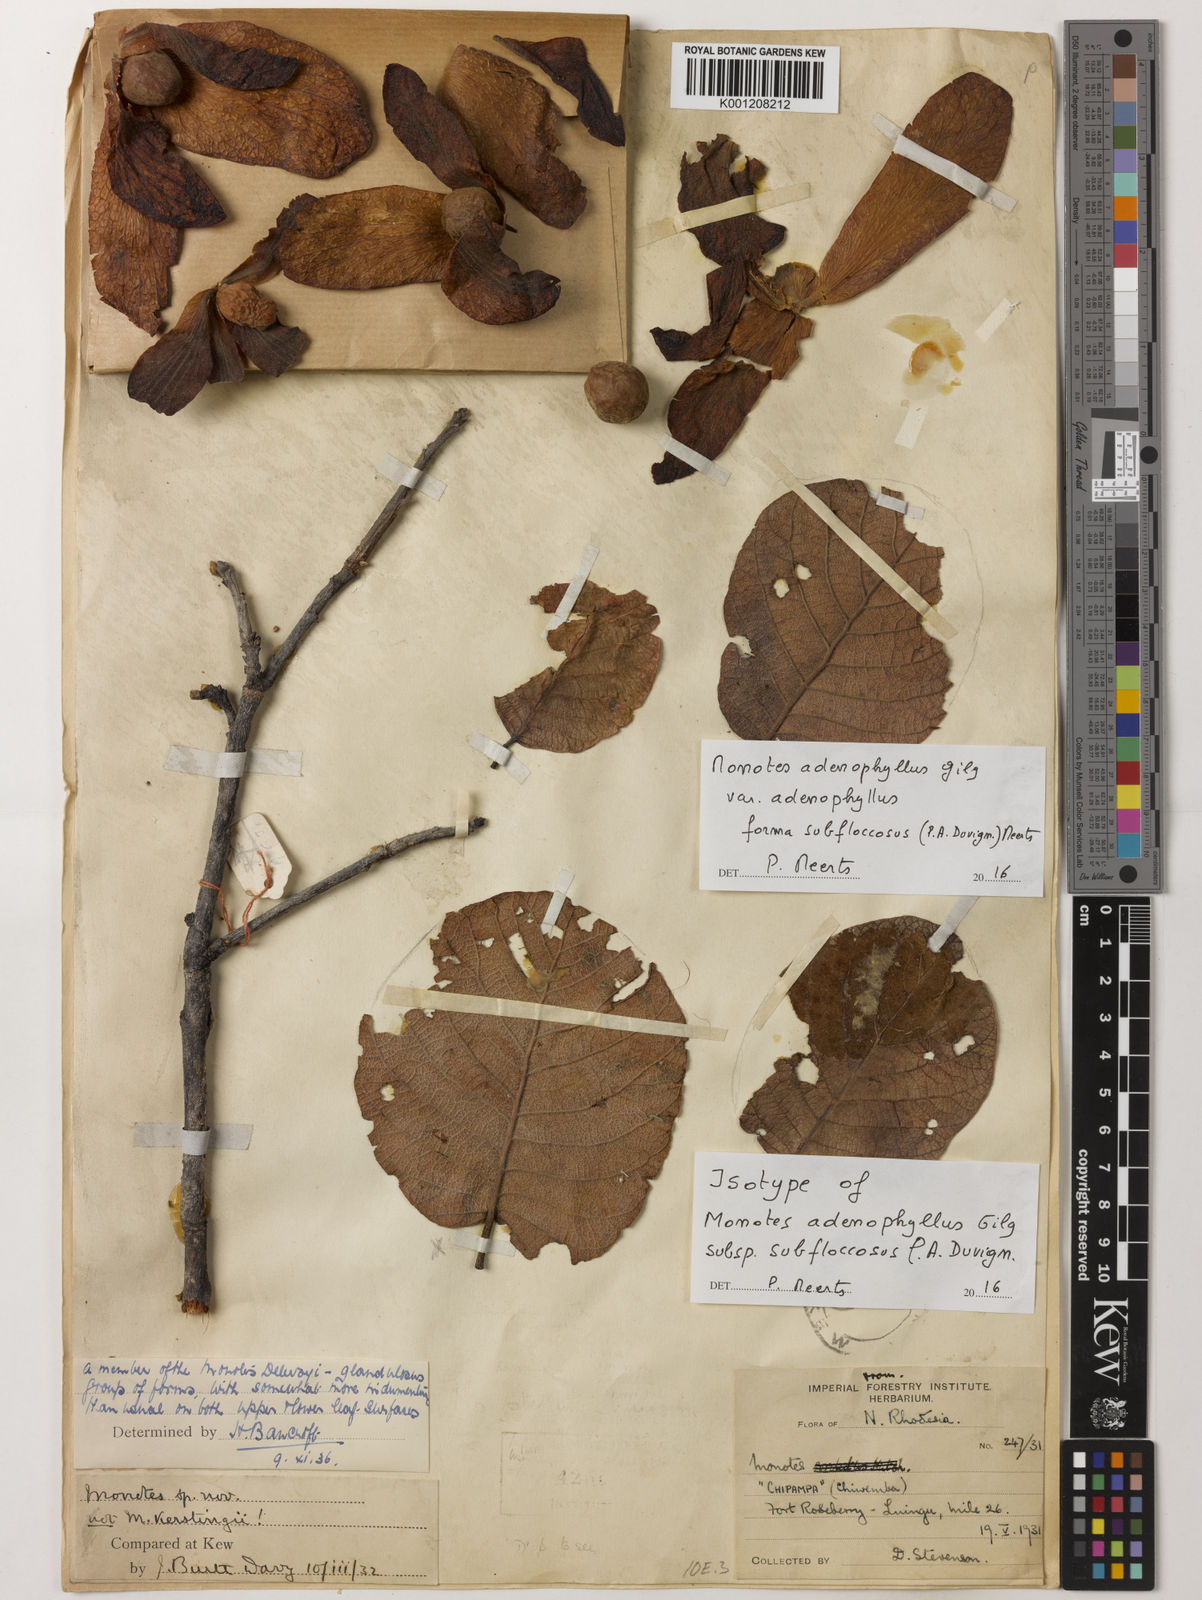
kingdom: Plantae
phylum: Tracheophyta
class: Magnoliopsida
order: Malvales
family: Dipterocarpaceae
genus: Monotes
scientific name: Monotes adenophyllus
